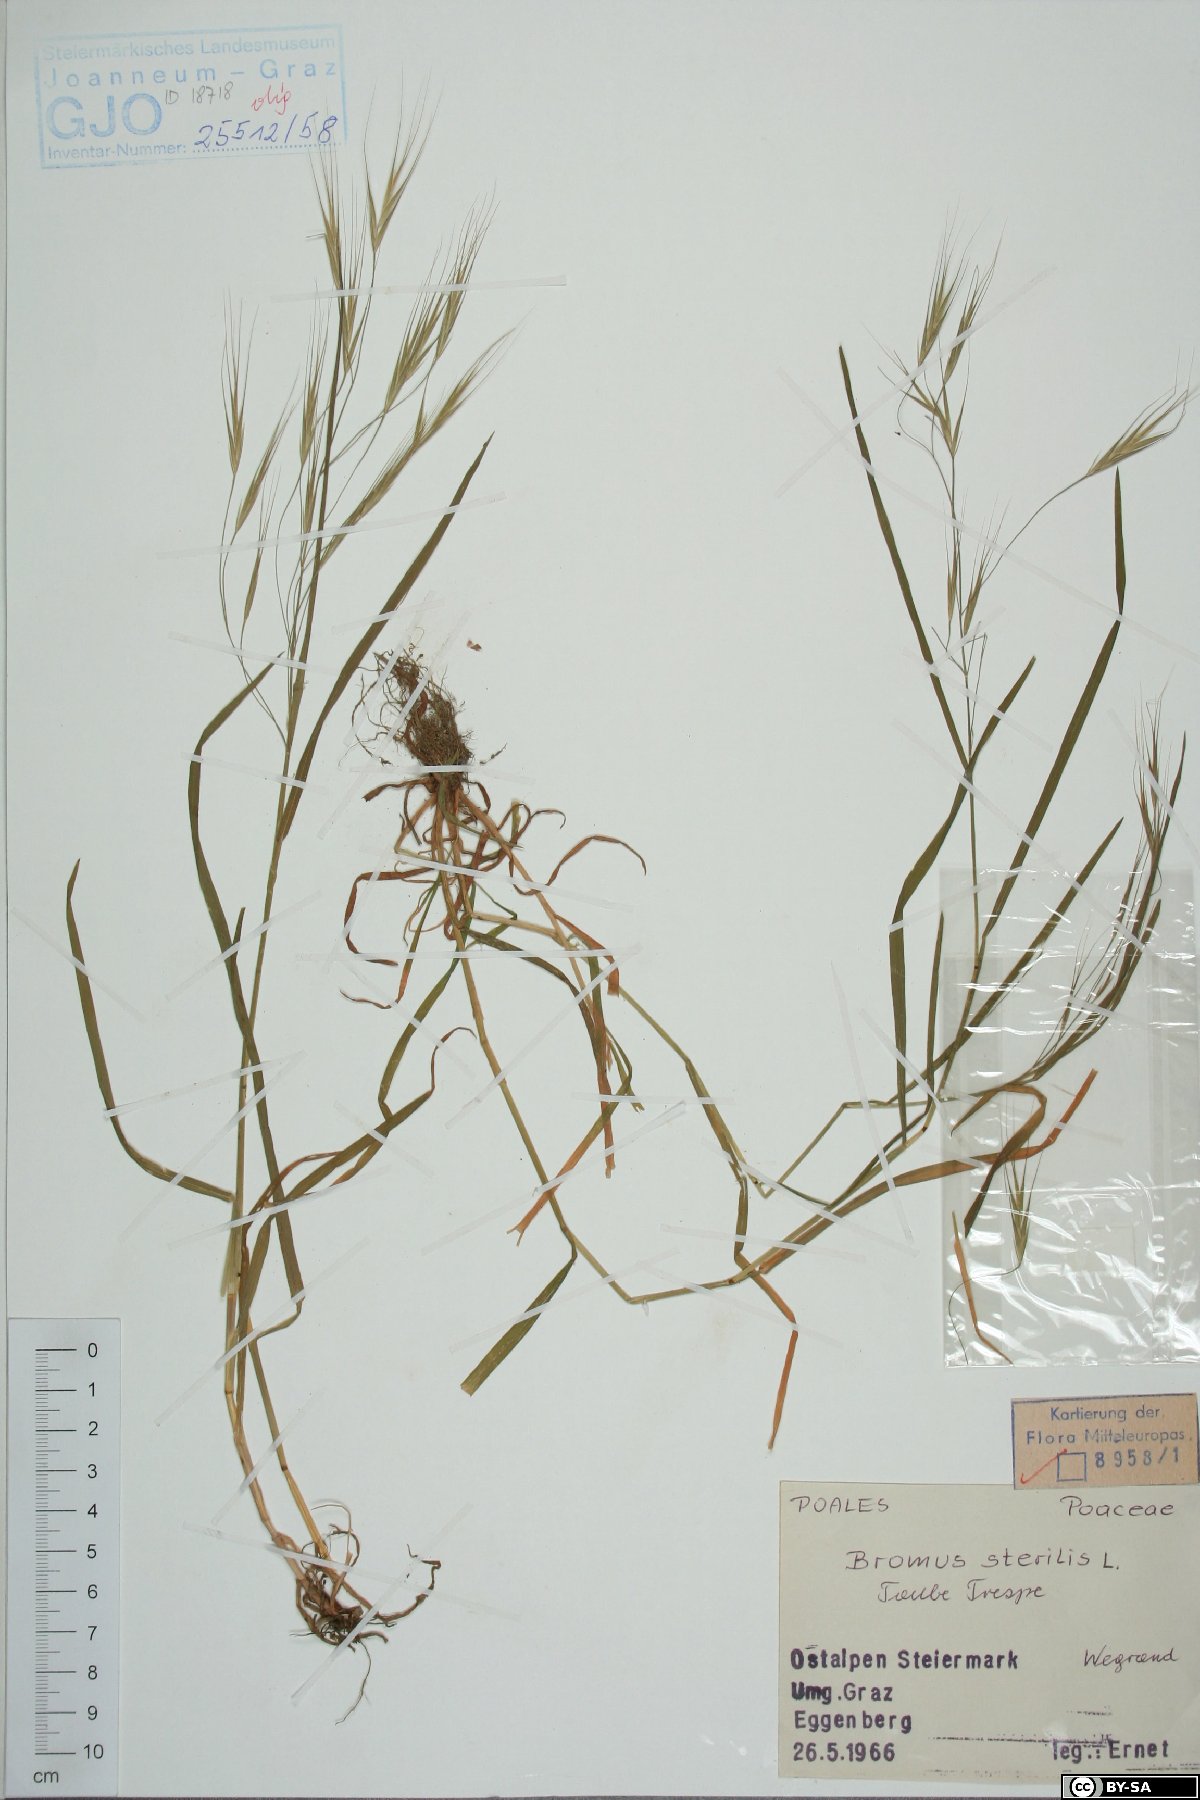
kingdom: Plantae
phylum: Tracheophyta
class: Liliopsida
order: Poales
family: Poaceae
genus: Bromus
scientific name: Bromus sterilis
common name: Poverty brome
